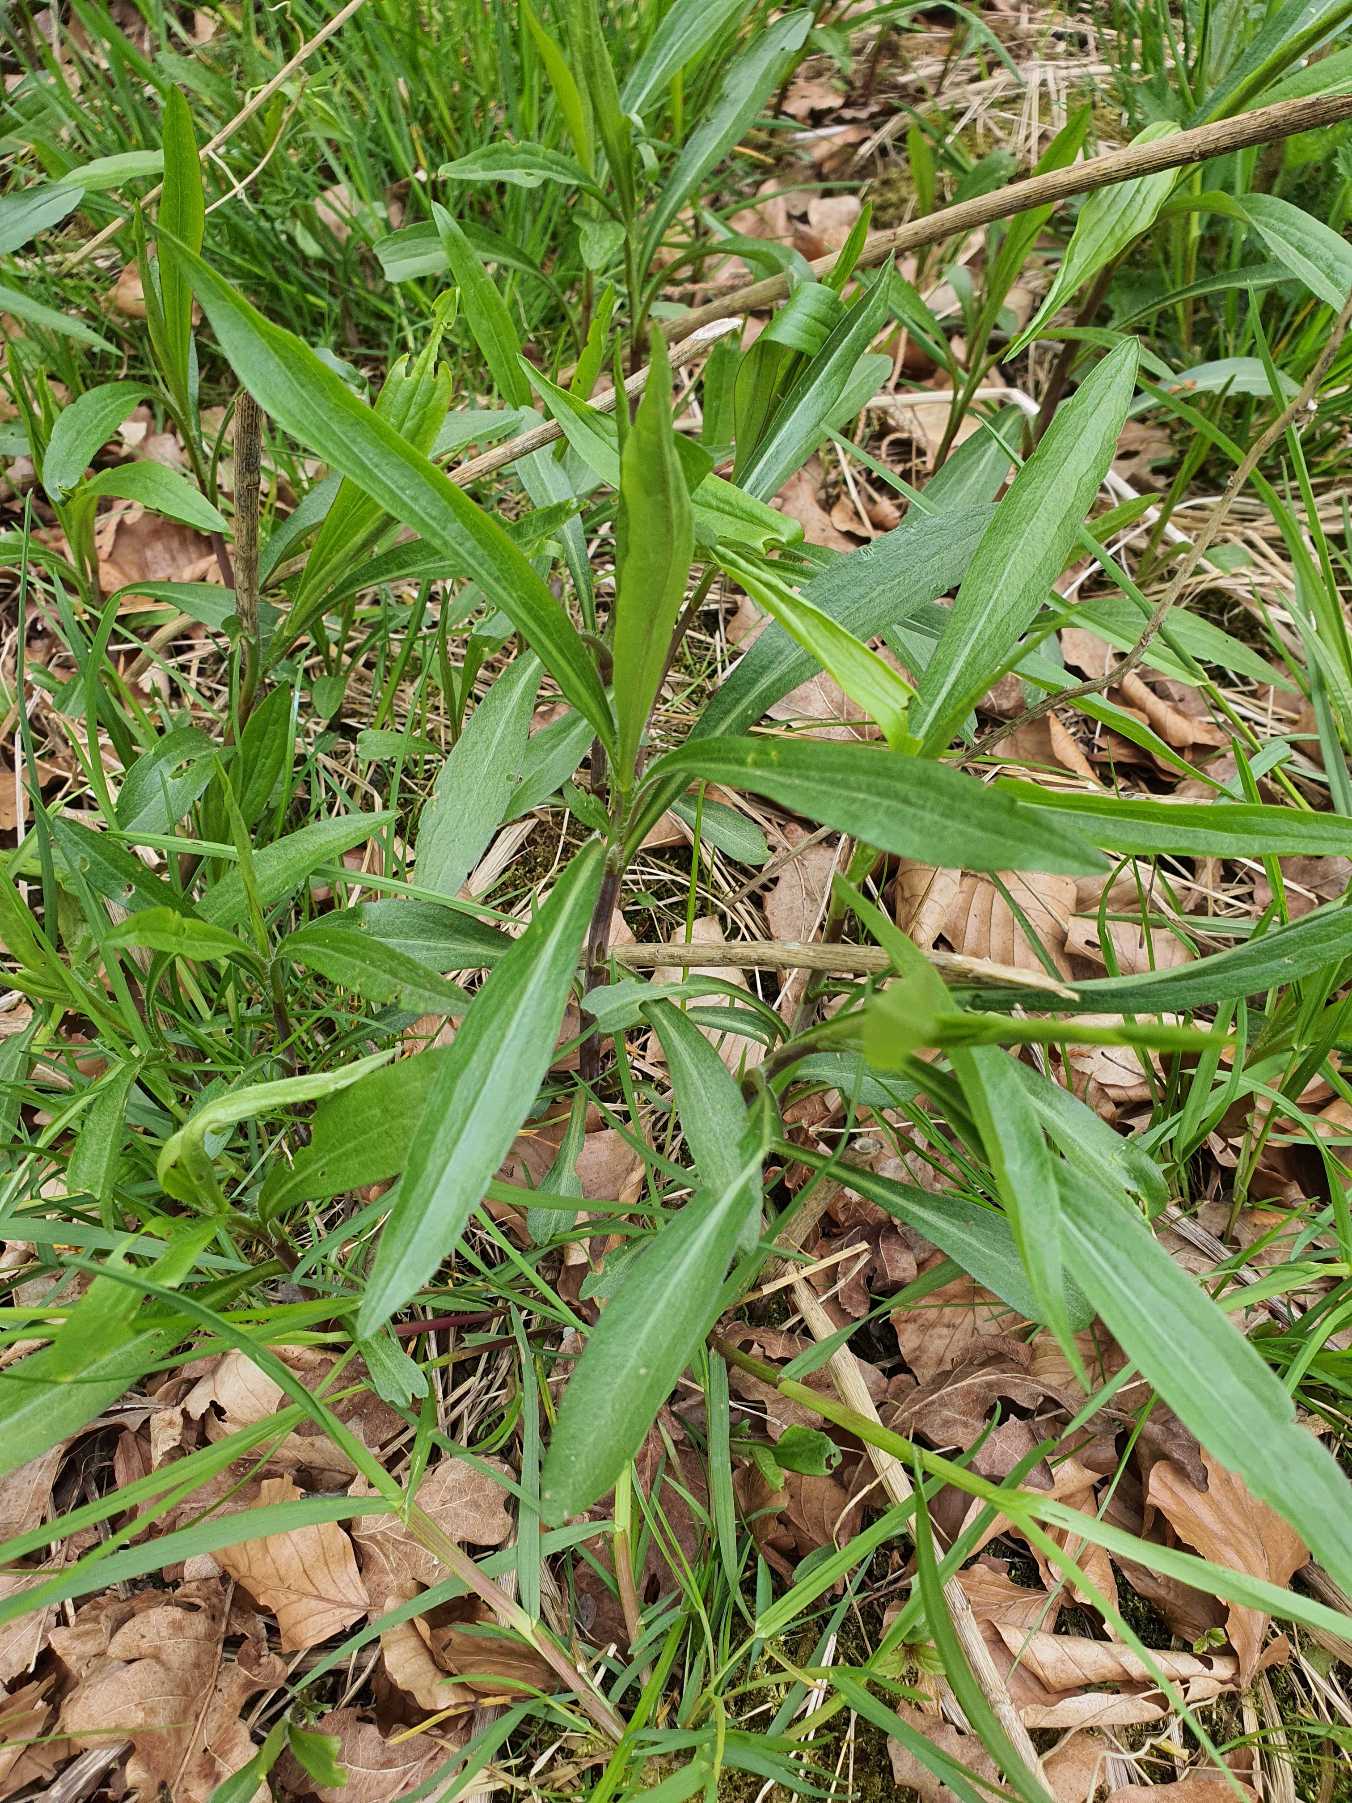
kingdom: Plantae
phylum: Tracheophyta
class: Magnoliopsida
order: Asterales
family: Asteraceae
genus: Solidago
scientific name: Solidago gigantea
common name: Sildig gyldenris
